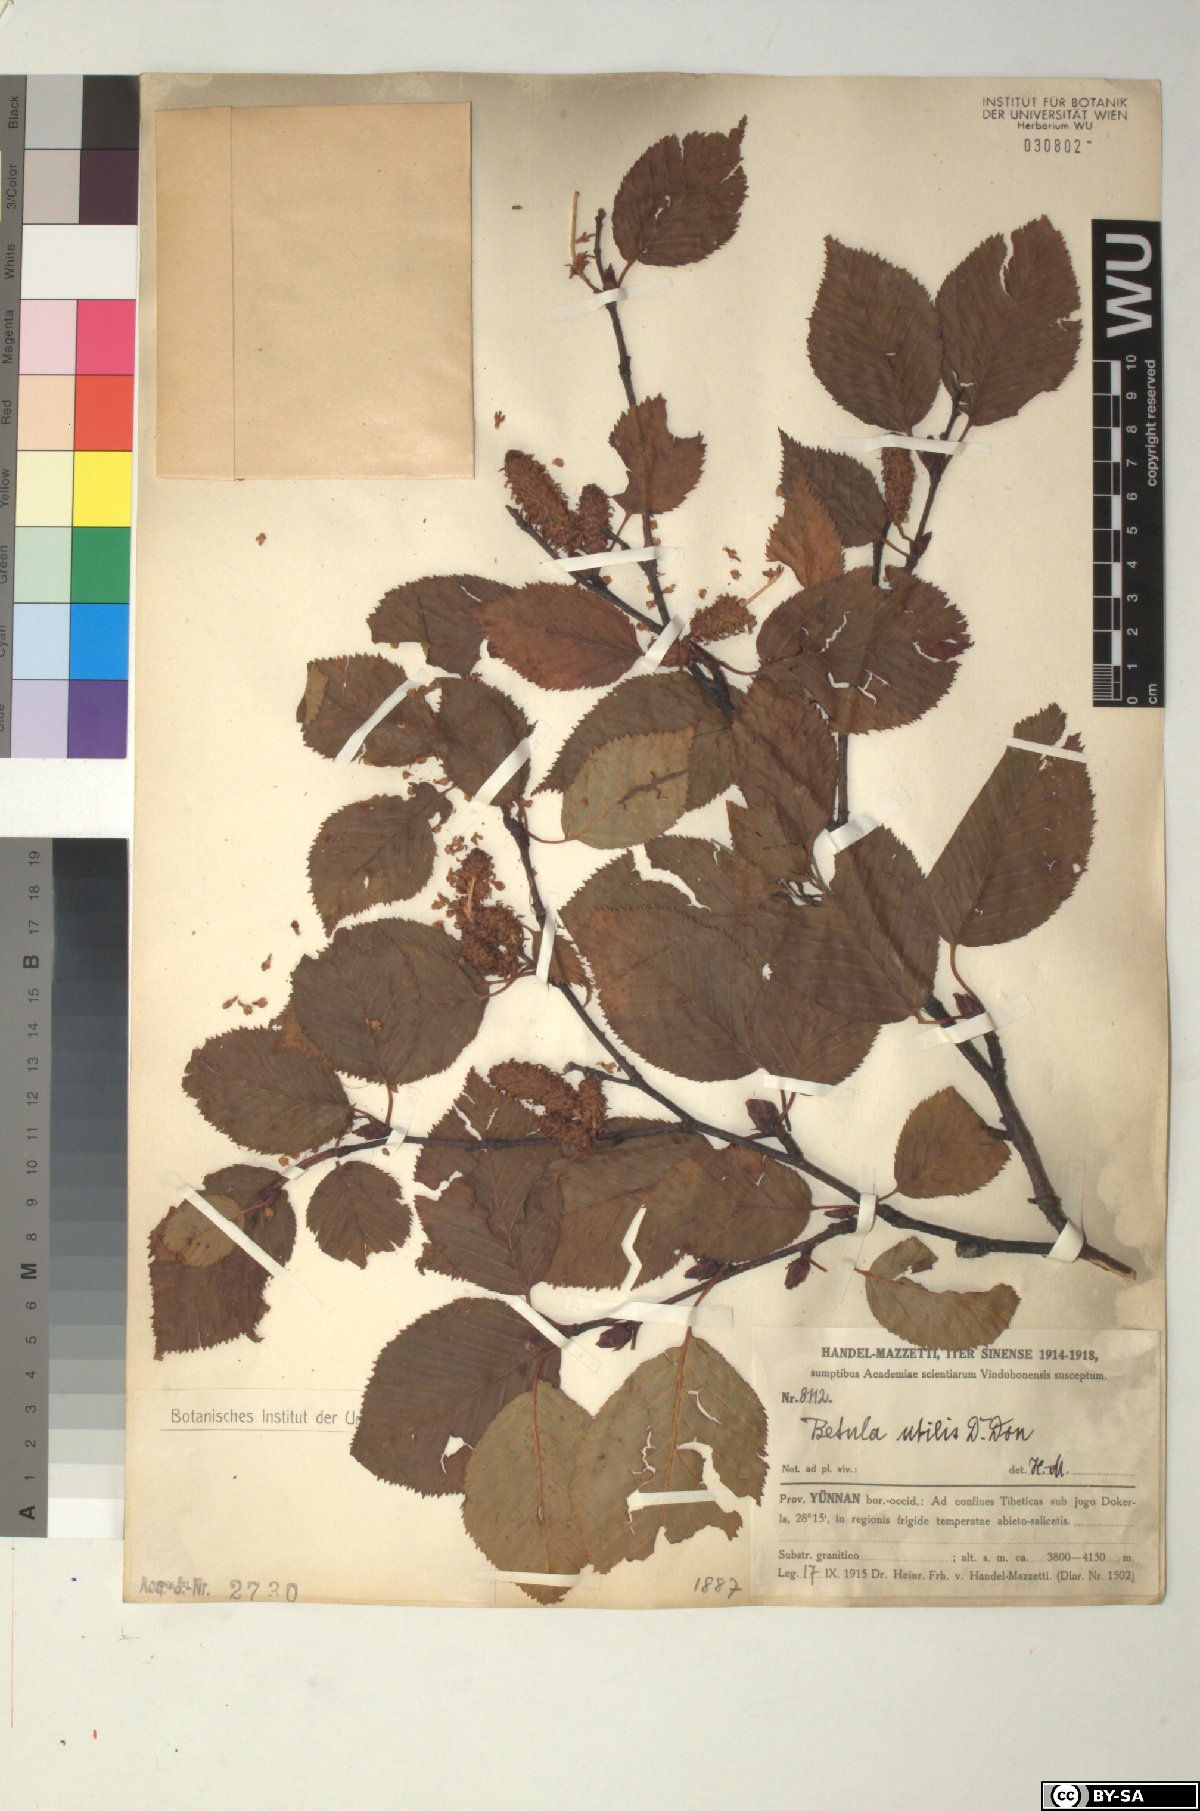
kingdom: Plantae
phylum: Tracheophyta
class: Magnoliopsida
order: Fagales
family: Betulaceae
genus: Betula
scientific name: Betula utilis
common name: Himalayan birch
